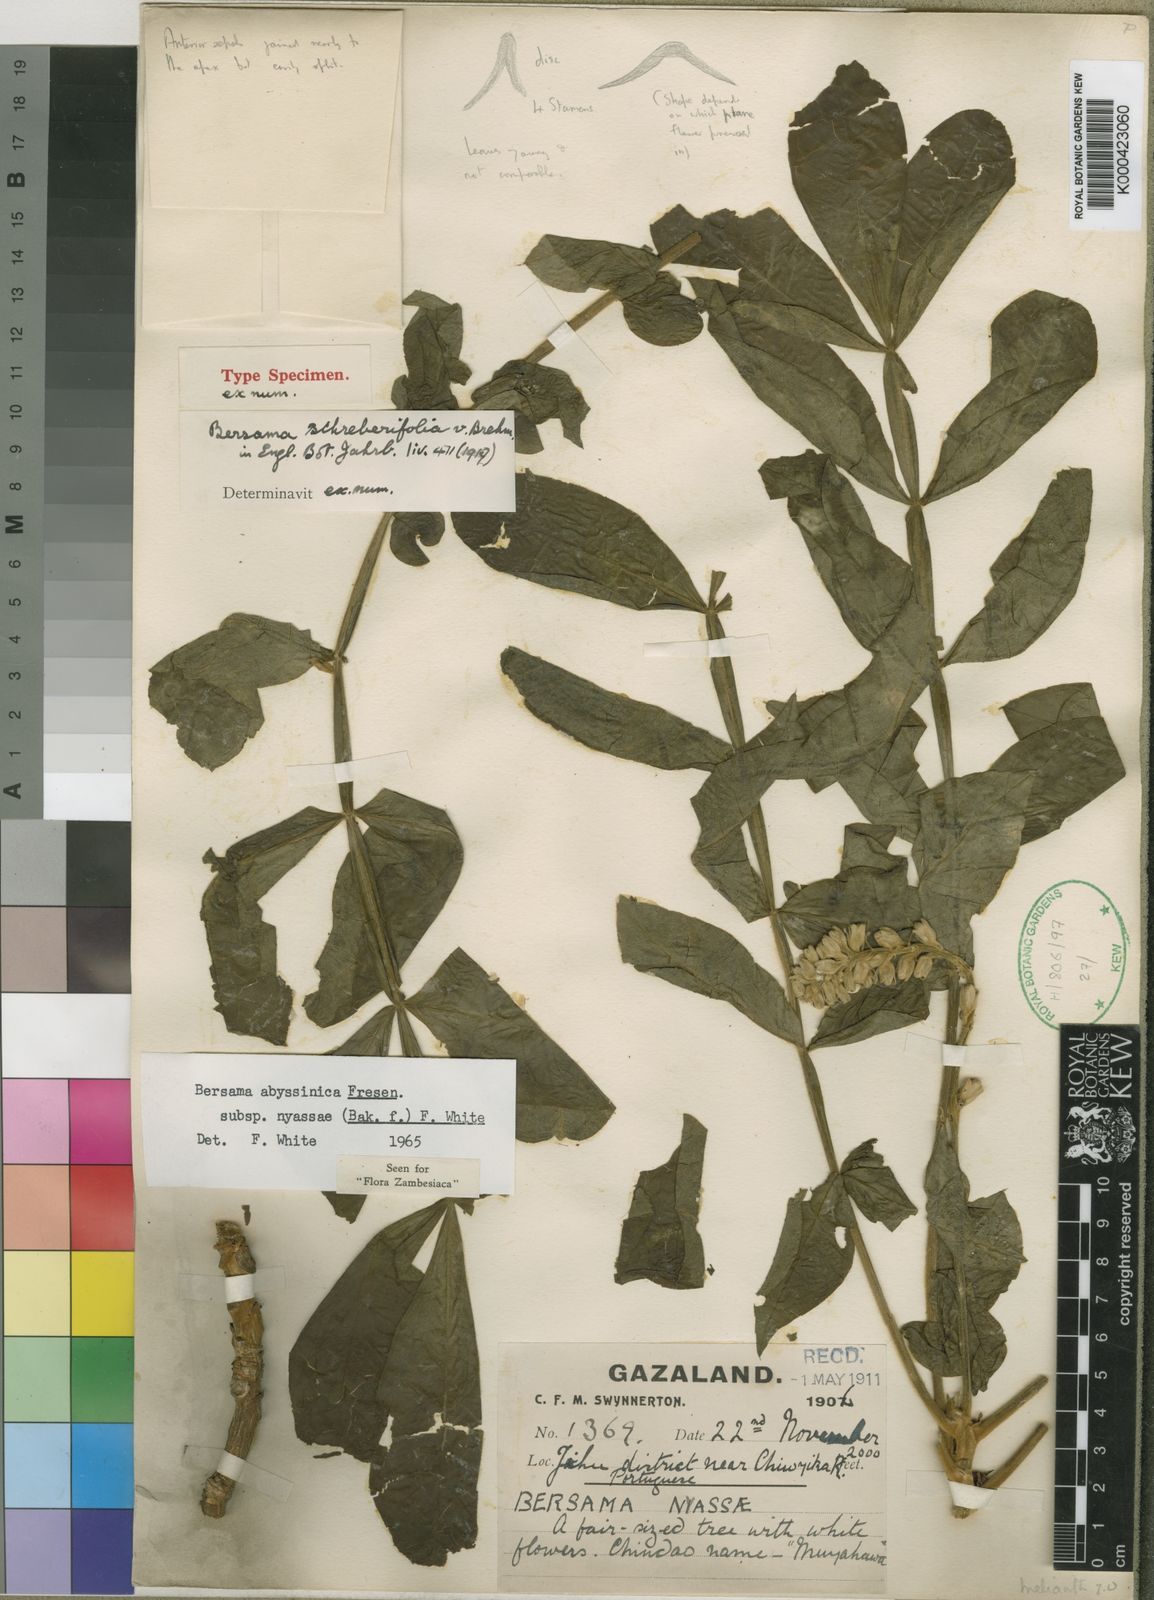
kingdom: Plantae
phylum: Tracheophyta
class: Magnoliopsida
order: Geraniales
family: Melianthaceae
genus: Bersama
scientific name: Bersama abyssinica
